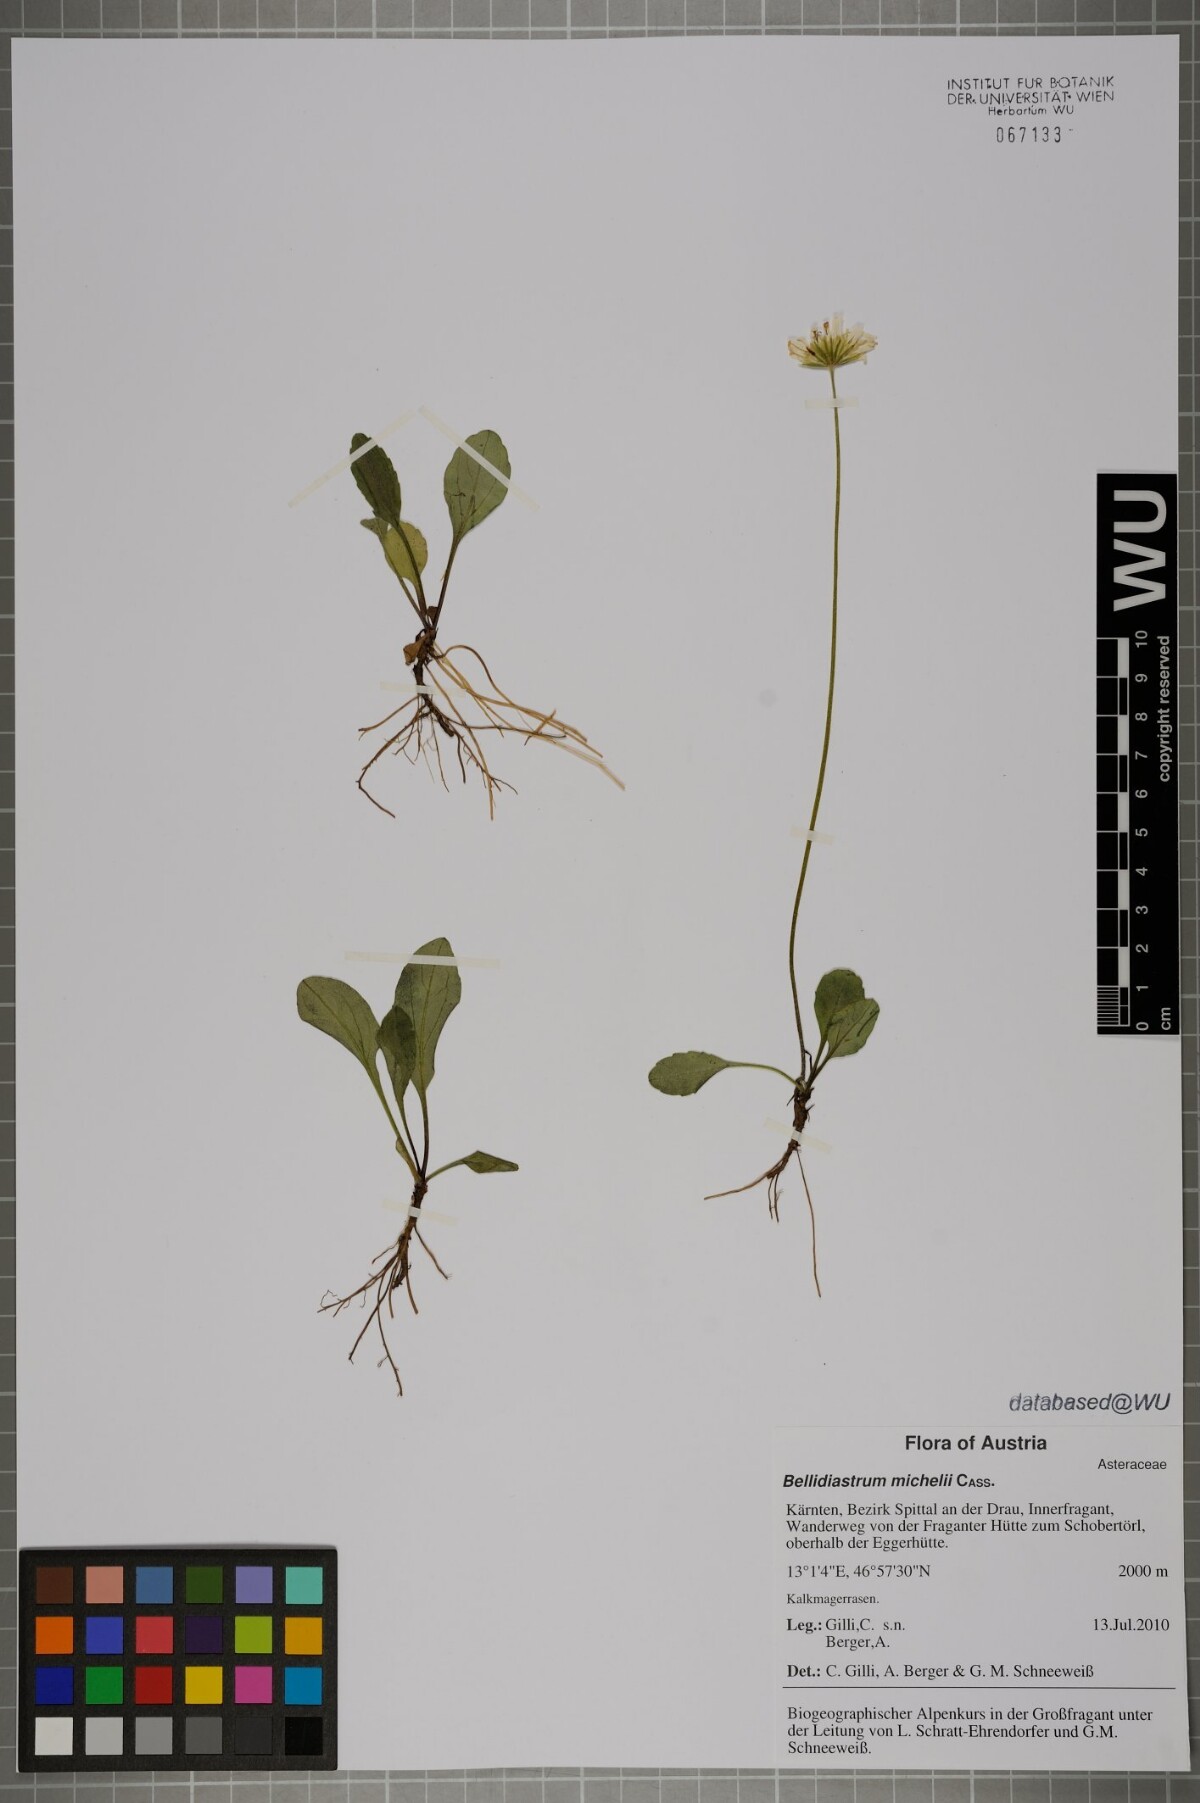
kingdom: Plantae
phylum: Tracheophyta
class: Magnoliopsida
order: Asterales
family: Asteraceae
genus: Bellidiastrum
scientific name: Bellidiastrum michelii
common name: Daisy-star aster
